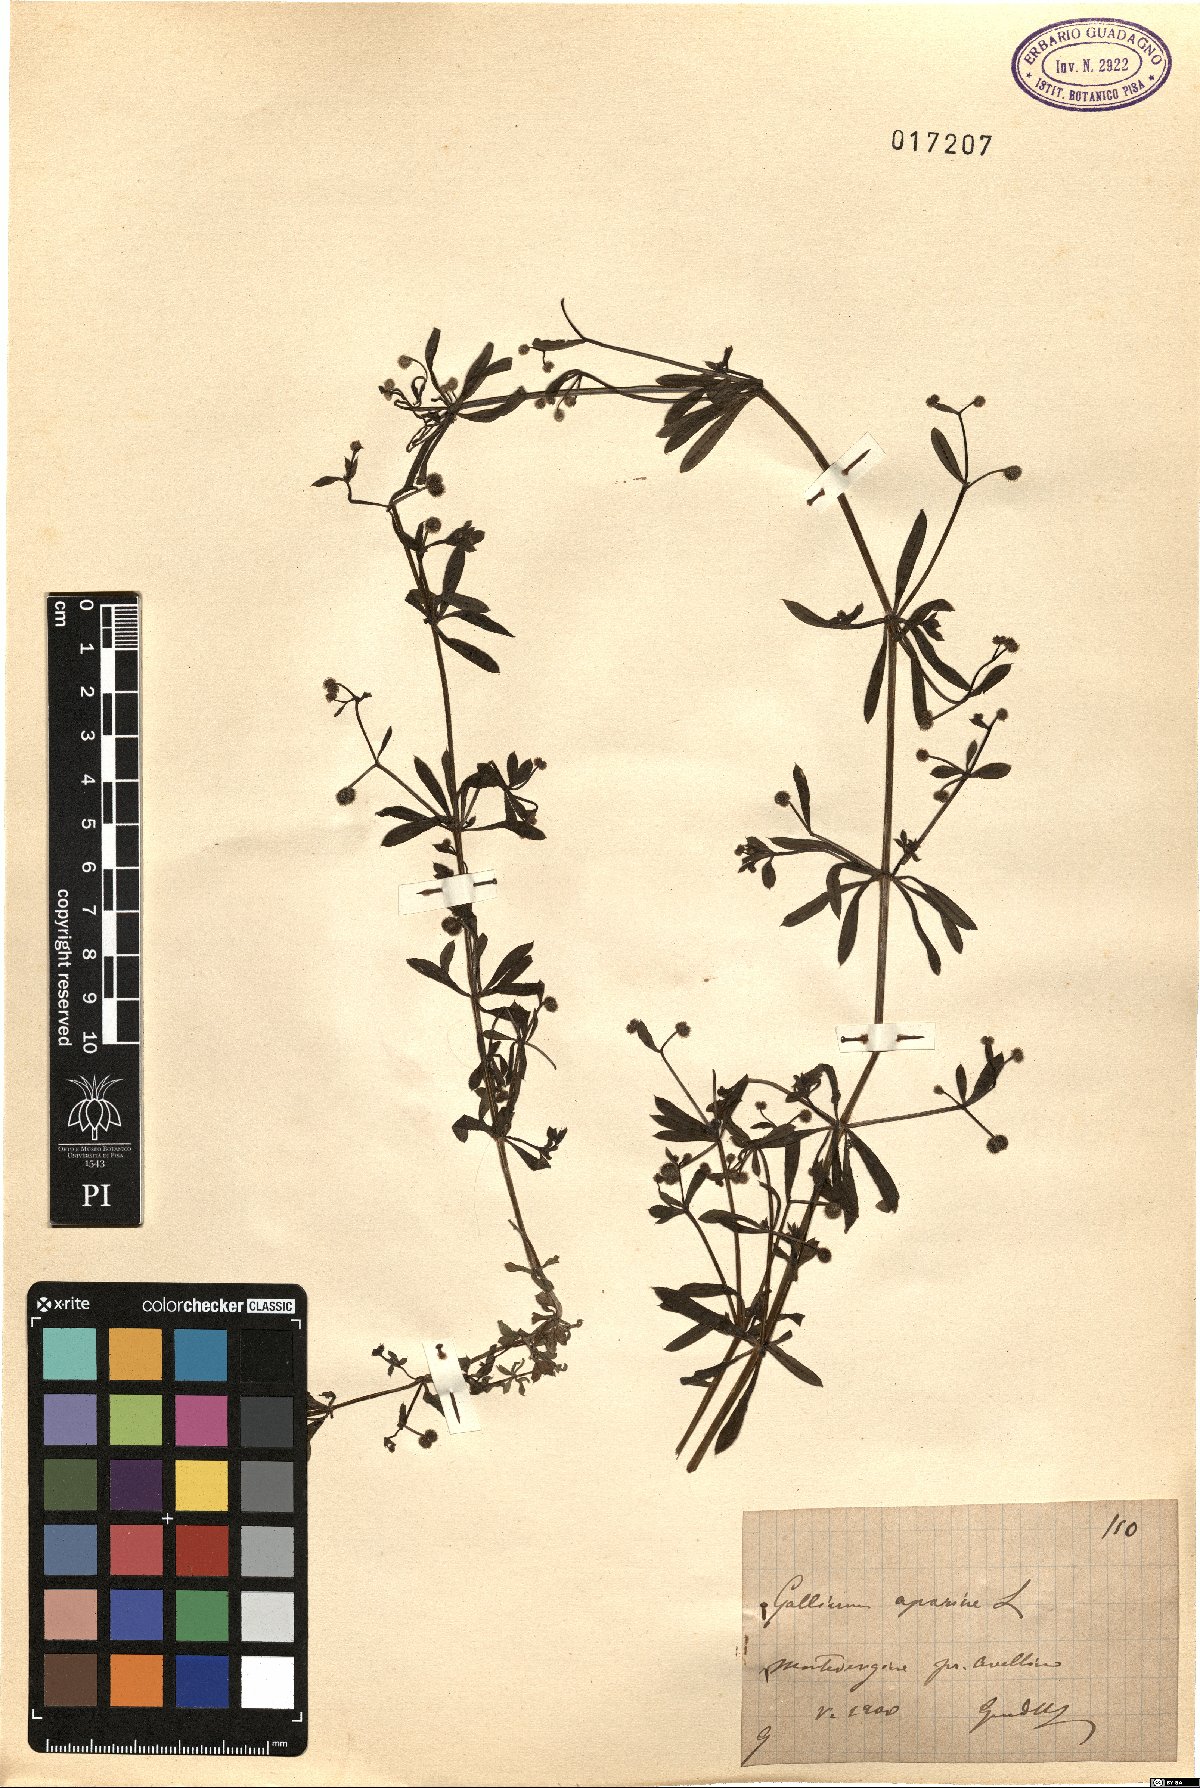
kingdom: Plantae
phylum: Tracheophyta
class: Magnoliopsida
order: Gentianales
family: Rubiaceae
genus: Galium
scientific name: Galium aparine
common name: Cleavers
